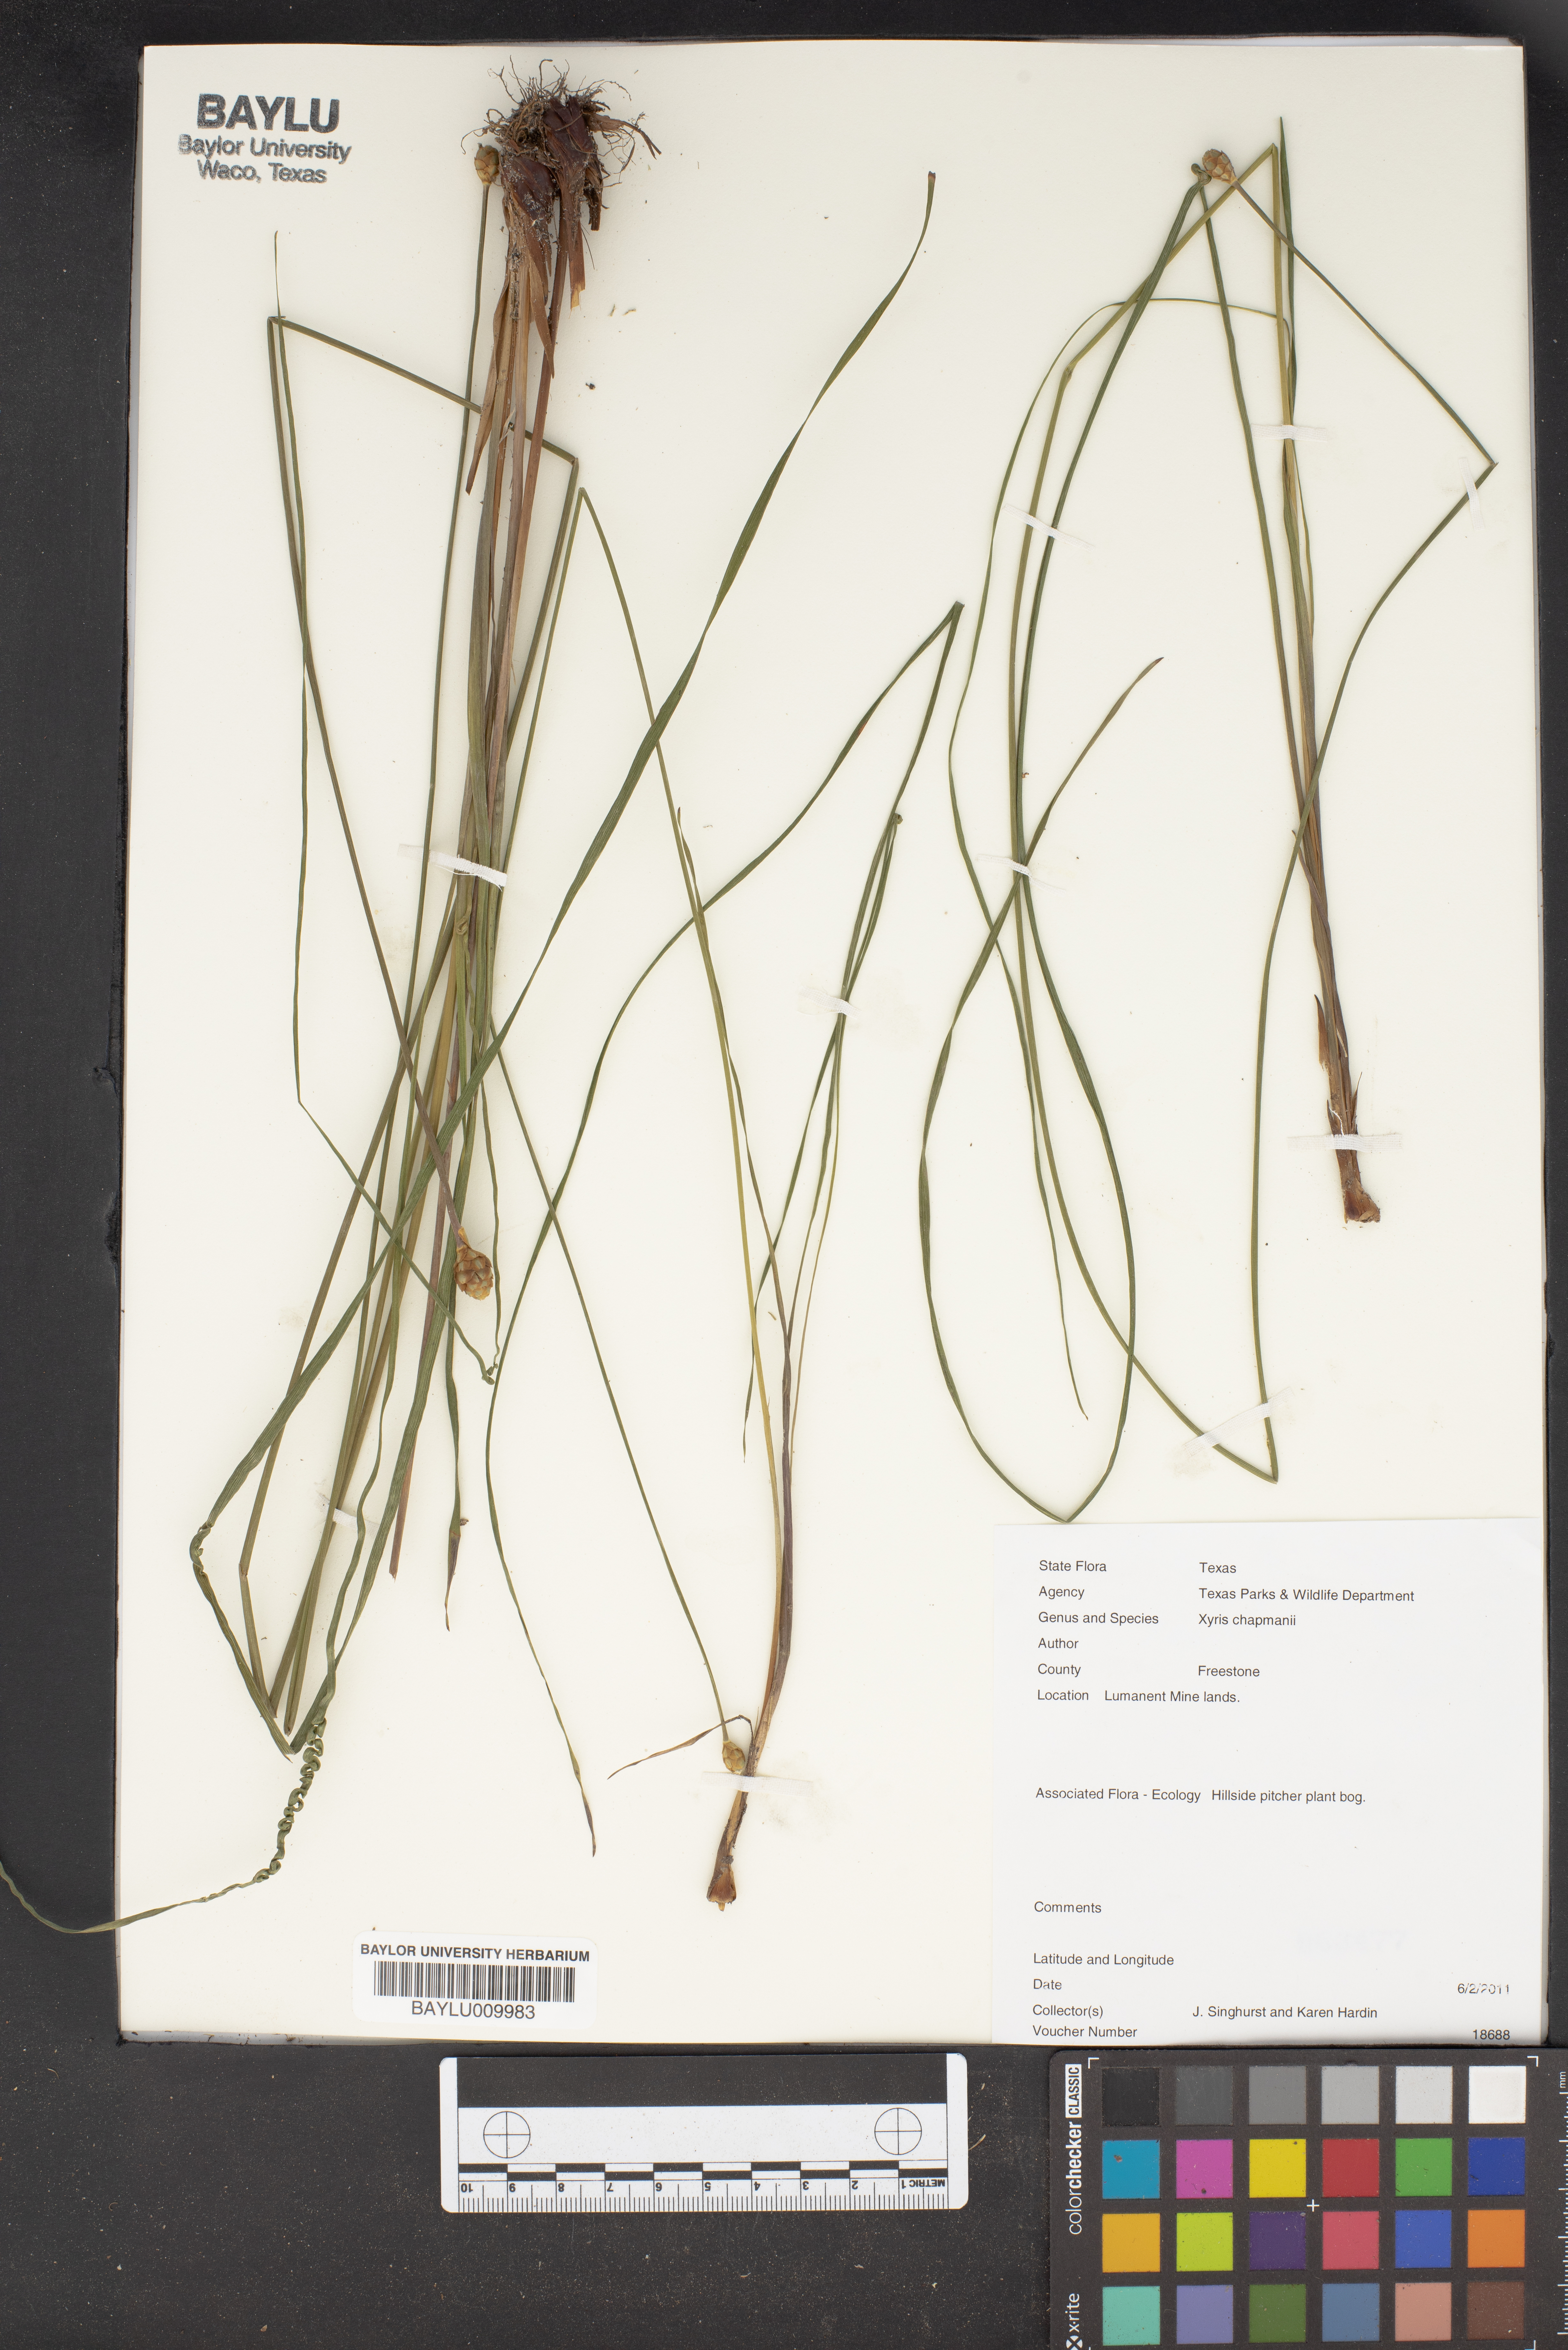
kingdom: Plantae
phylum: Tracheophyta
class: Liliopsida
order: Poales
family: Xyridaceae
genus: Xyris
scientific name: Xyris chapmanii
